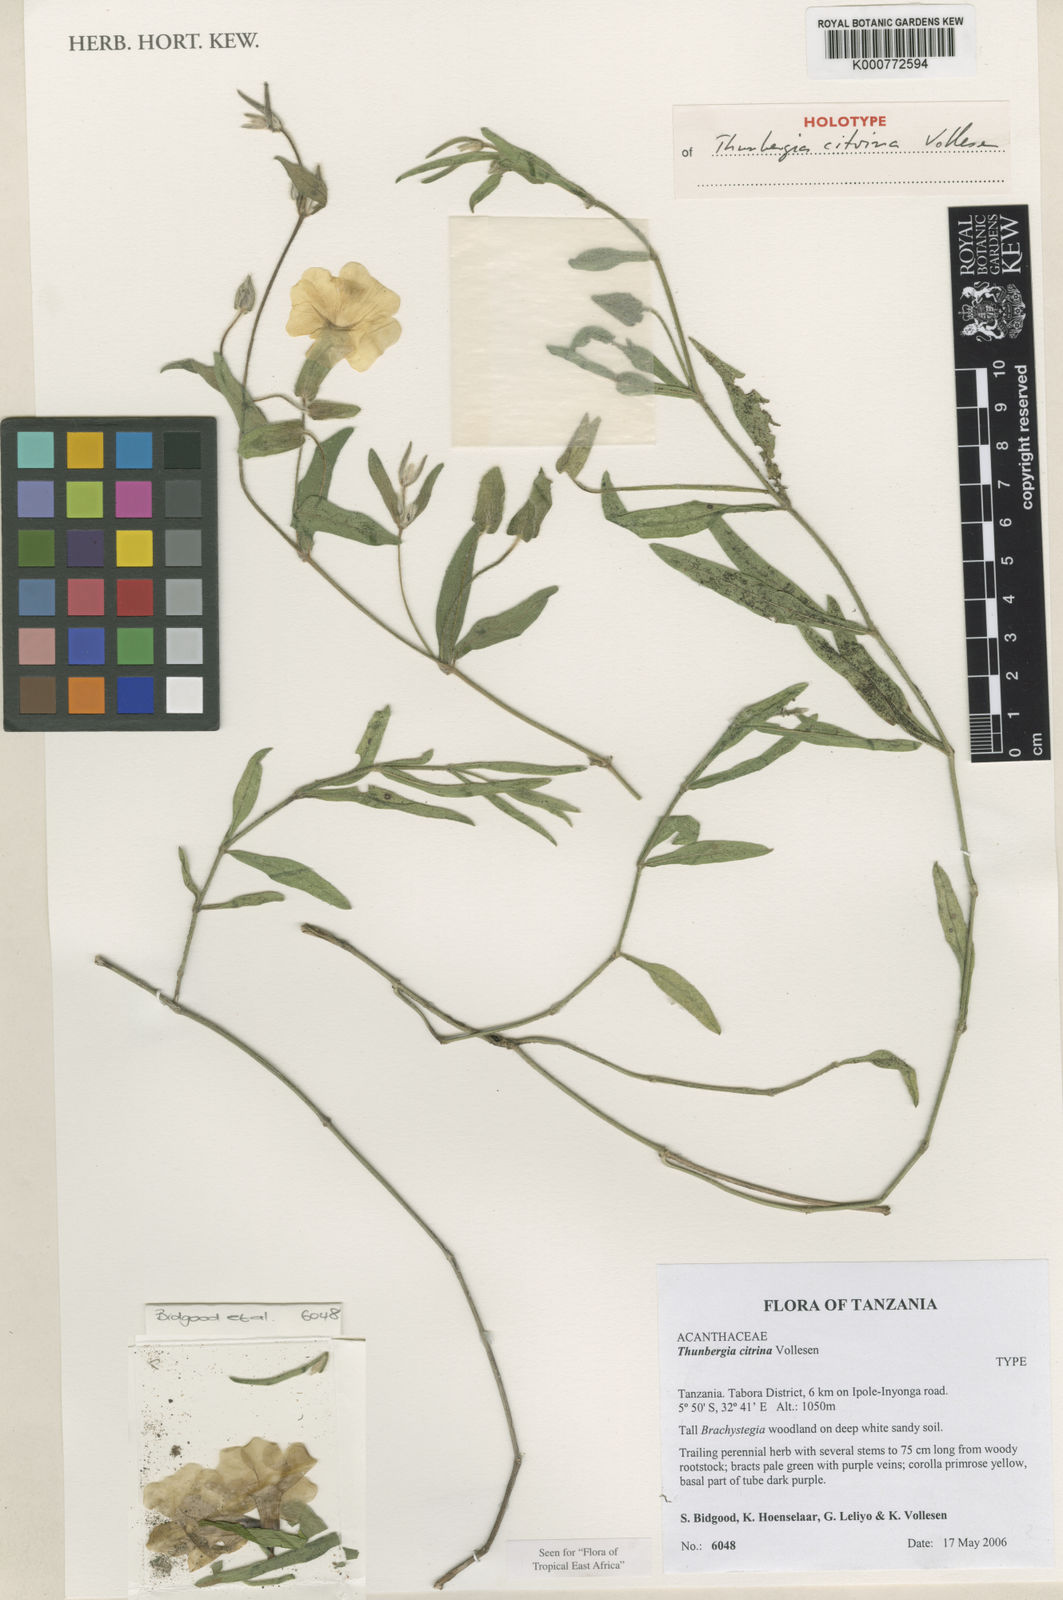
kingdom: Plantae
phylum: Tracheophyta
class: Magnoliopsida
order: Lamiales
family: Acanthaceae
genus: Thunbergia
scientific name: Thunbergia citrina
